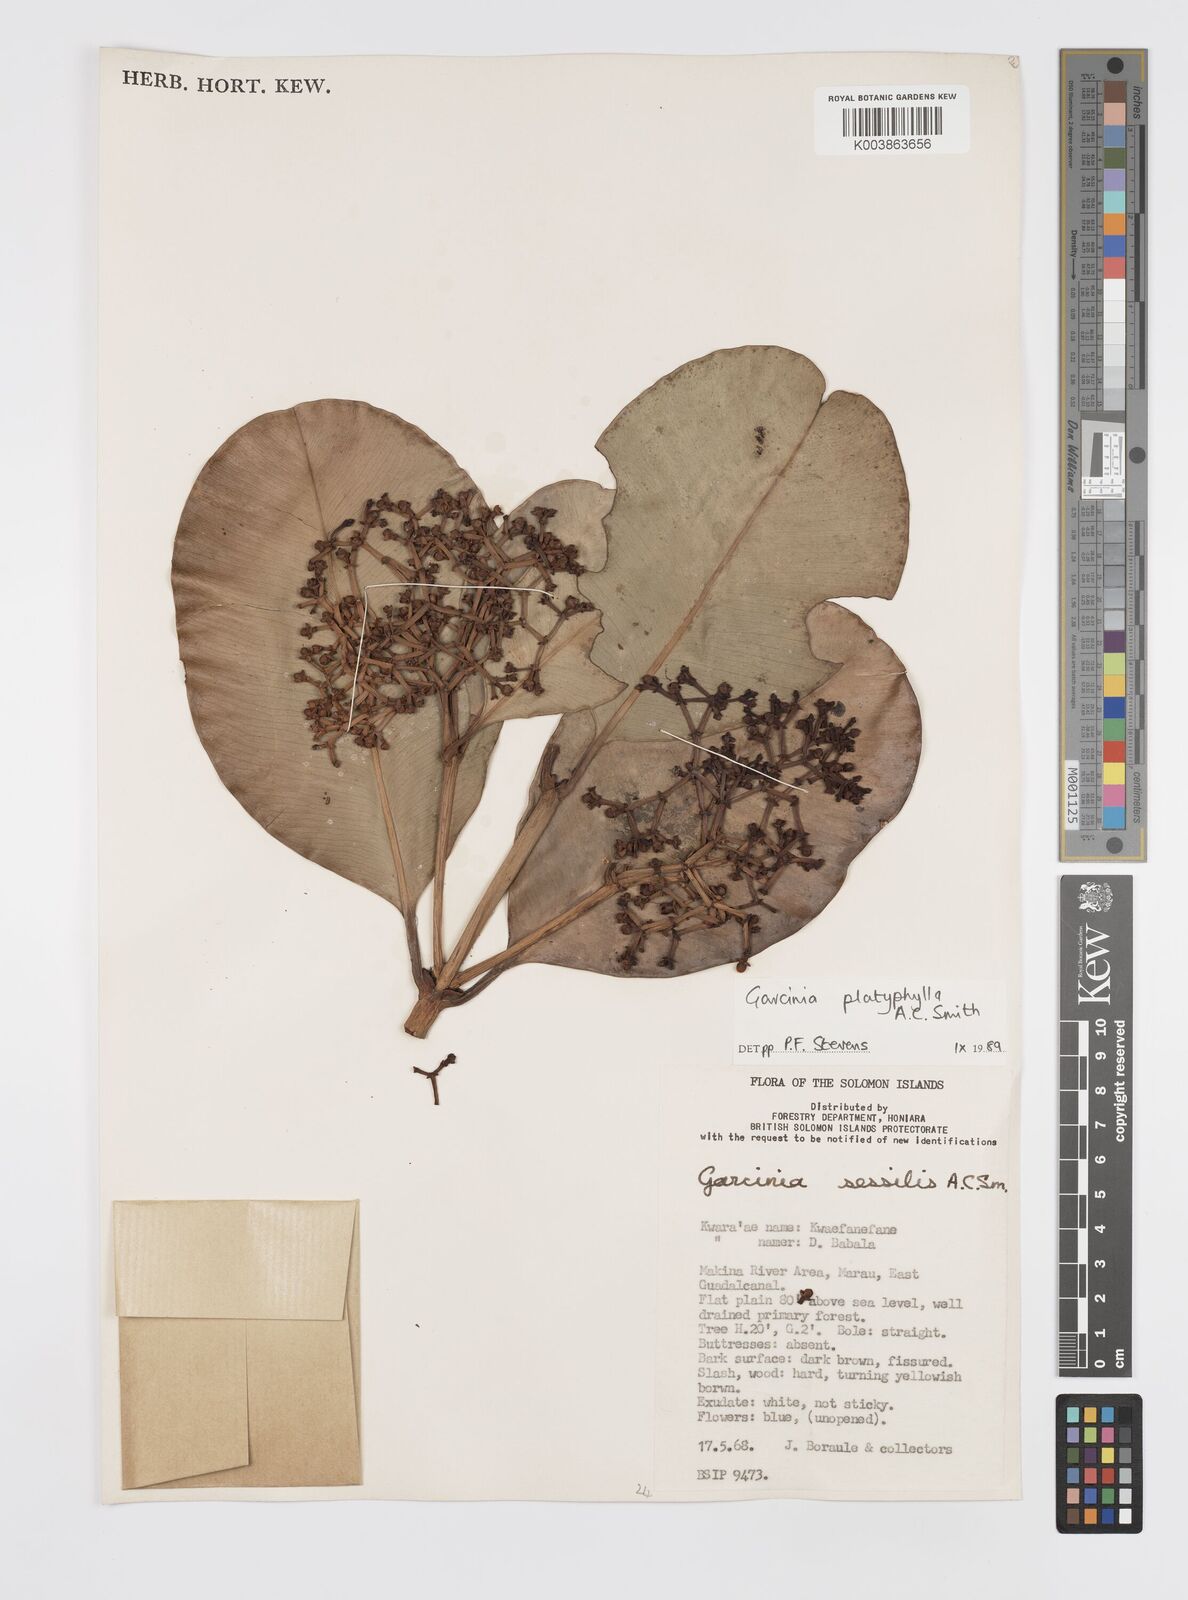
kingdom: Plantae
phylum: Tracheophyta
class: Magnoliopsida
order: Malpighiales
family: Clusiaceae
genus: Garcinia
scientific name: Garcinia platyphylla
